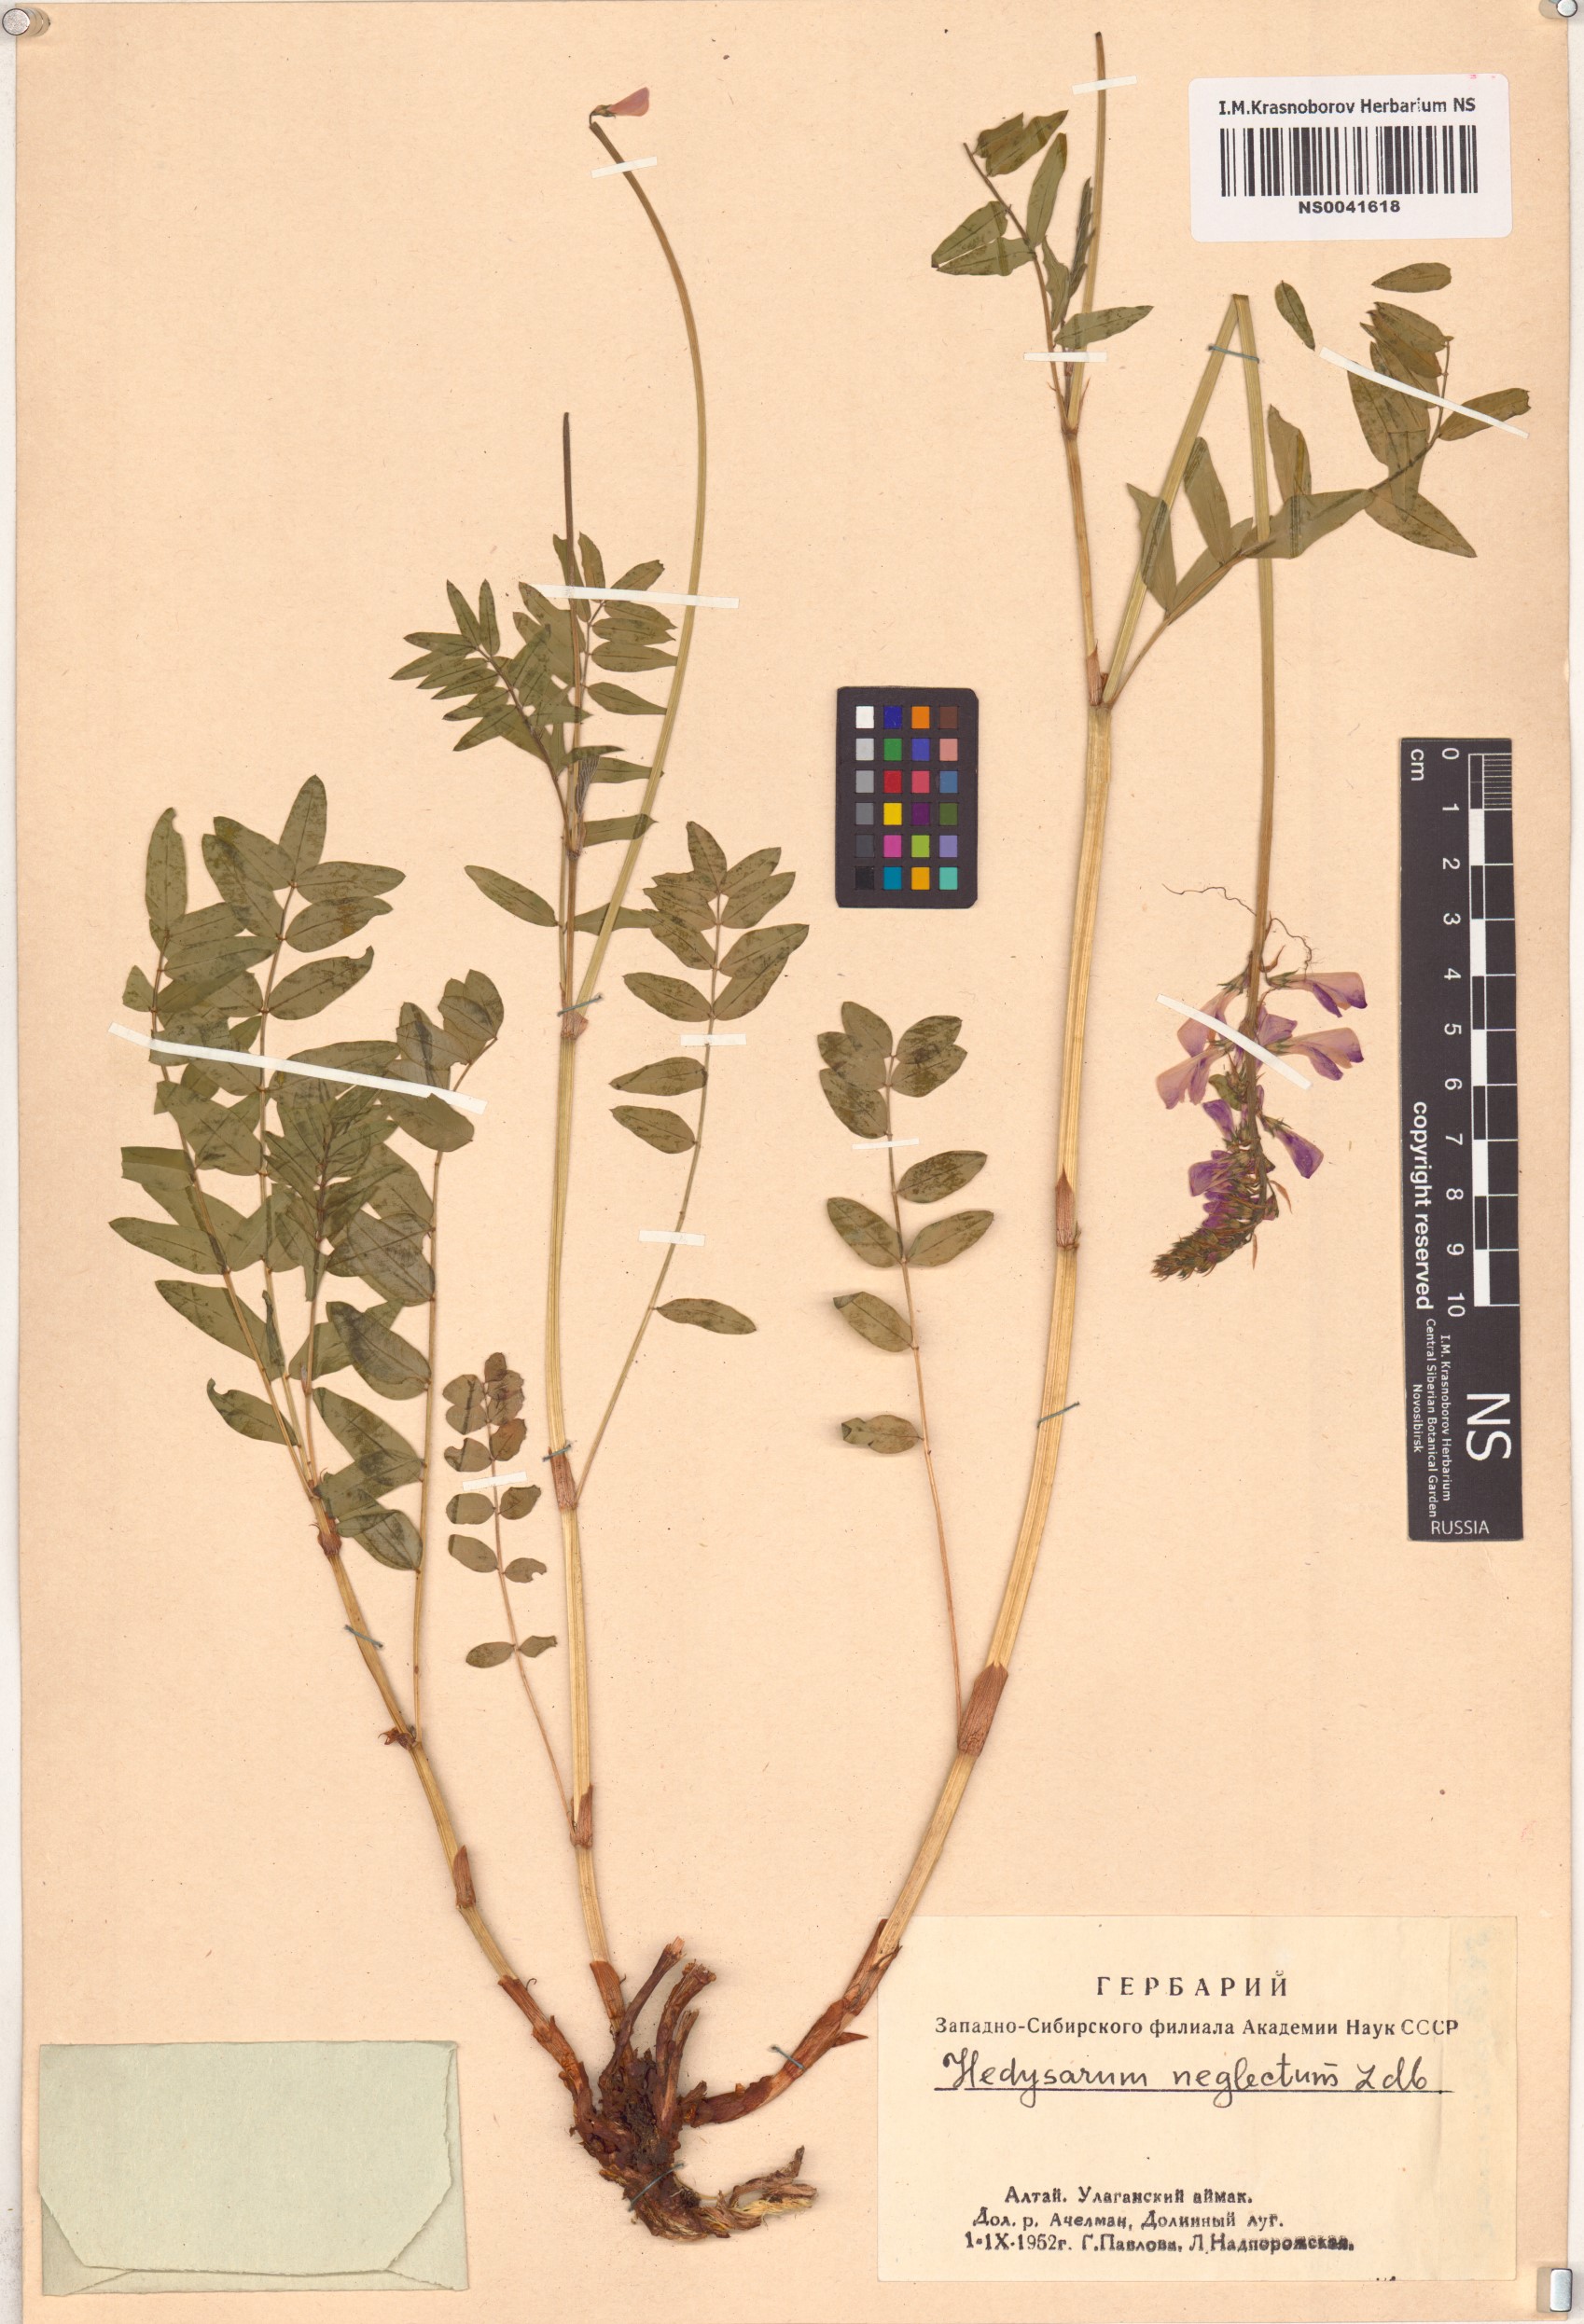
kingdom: Plantae
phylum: Tracheophyta
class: Magnoliopsida
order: Fabales
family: Fabaceae
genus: Hedysarum
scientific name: Hedysarum neglectum
